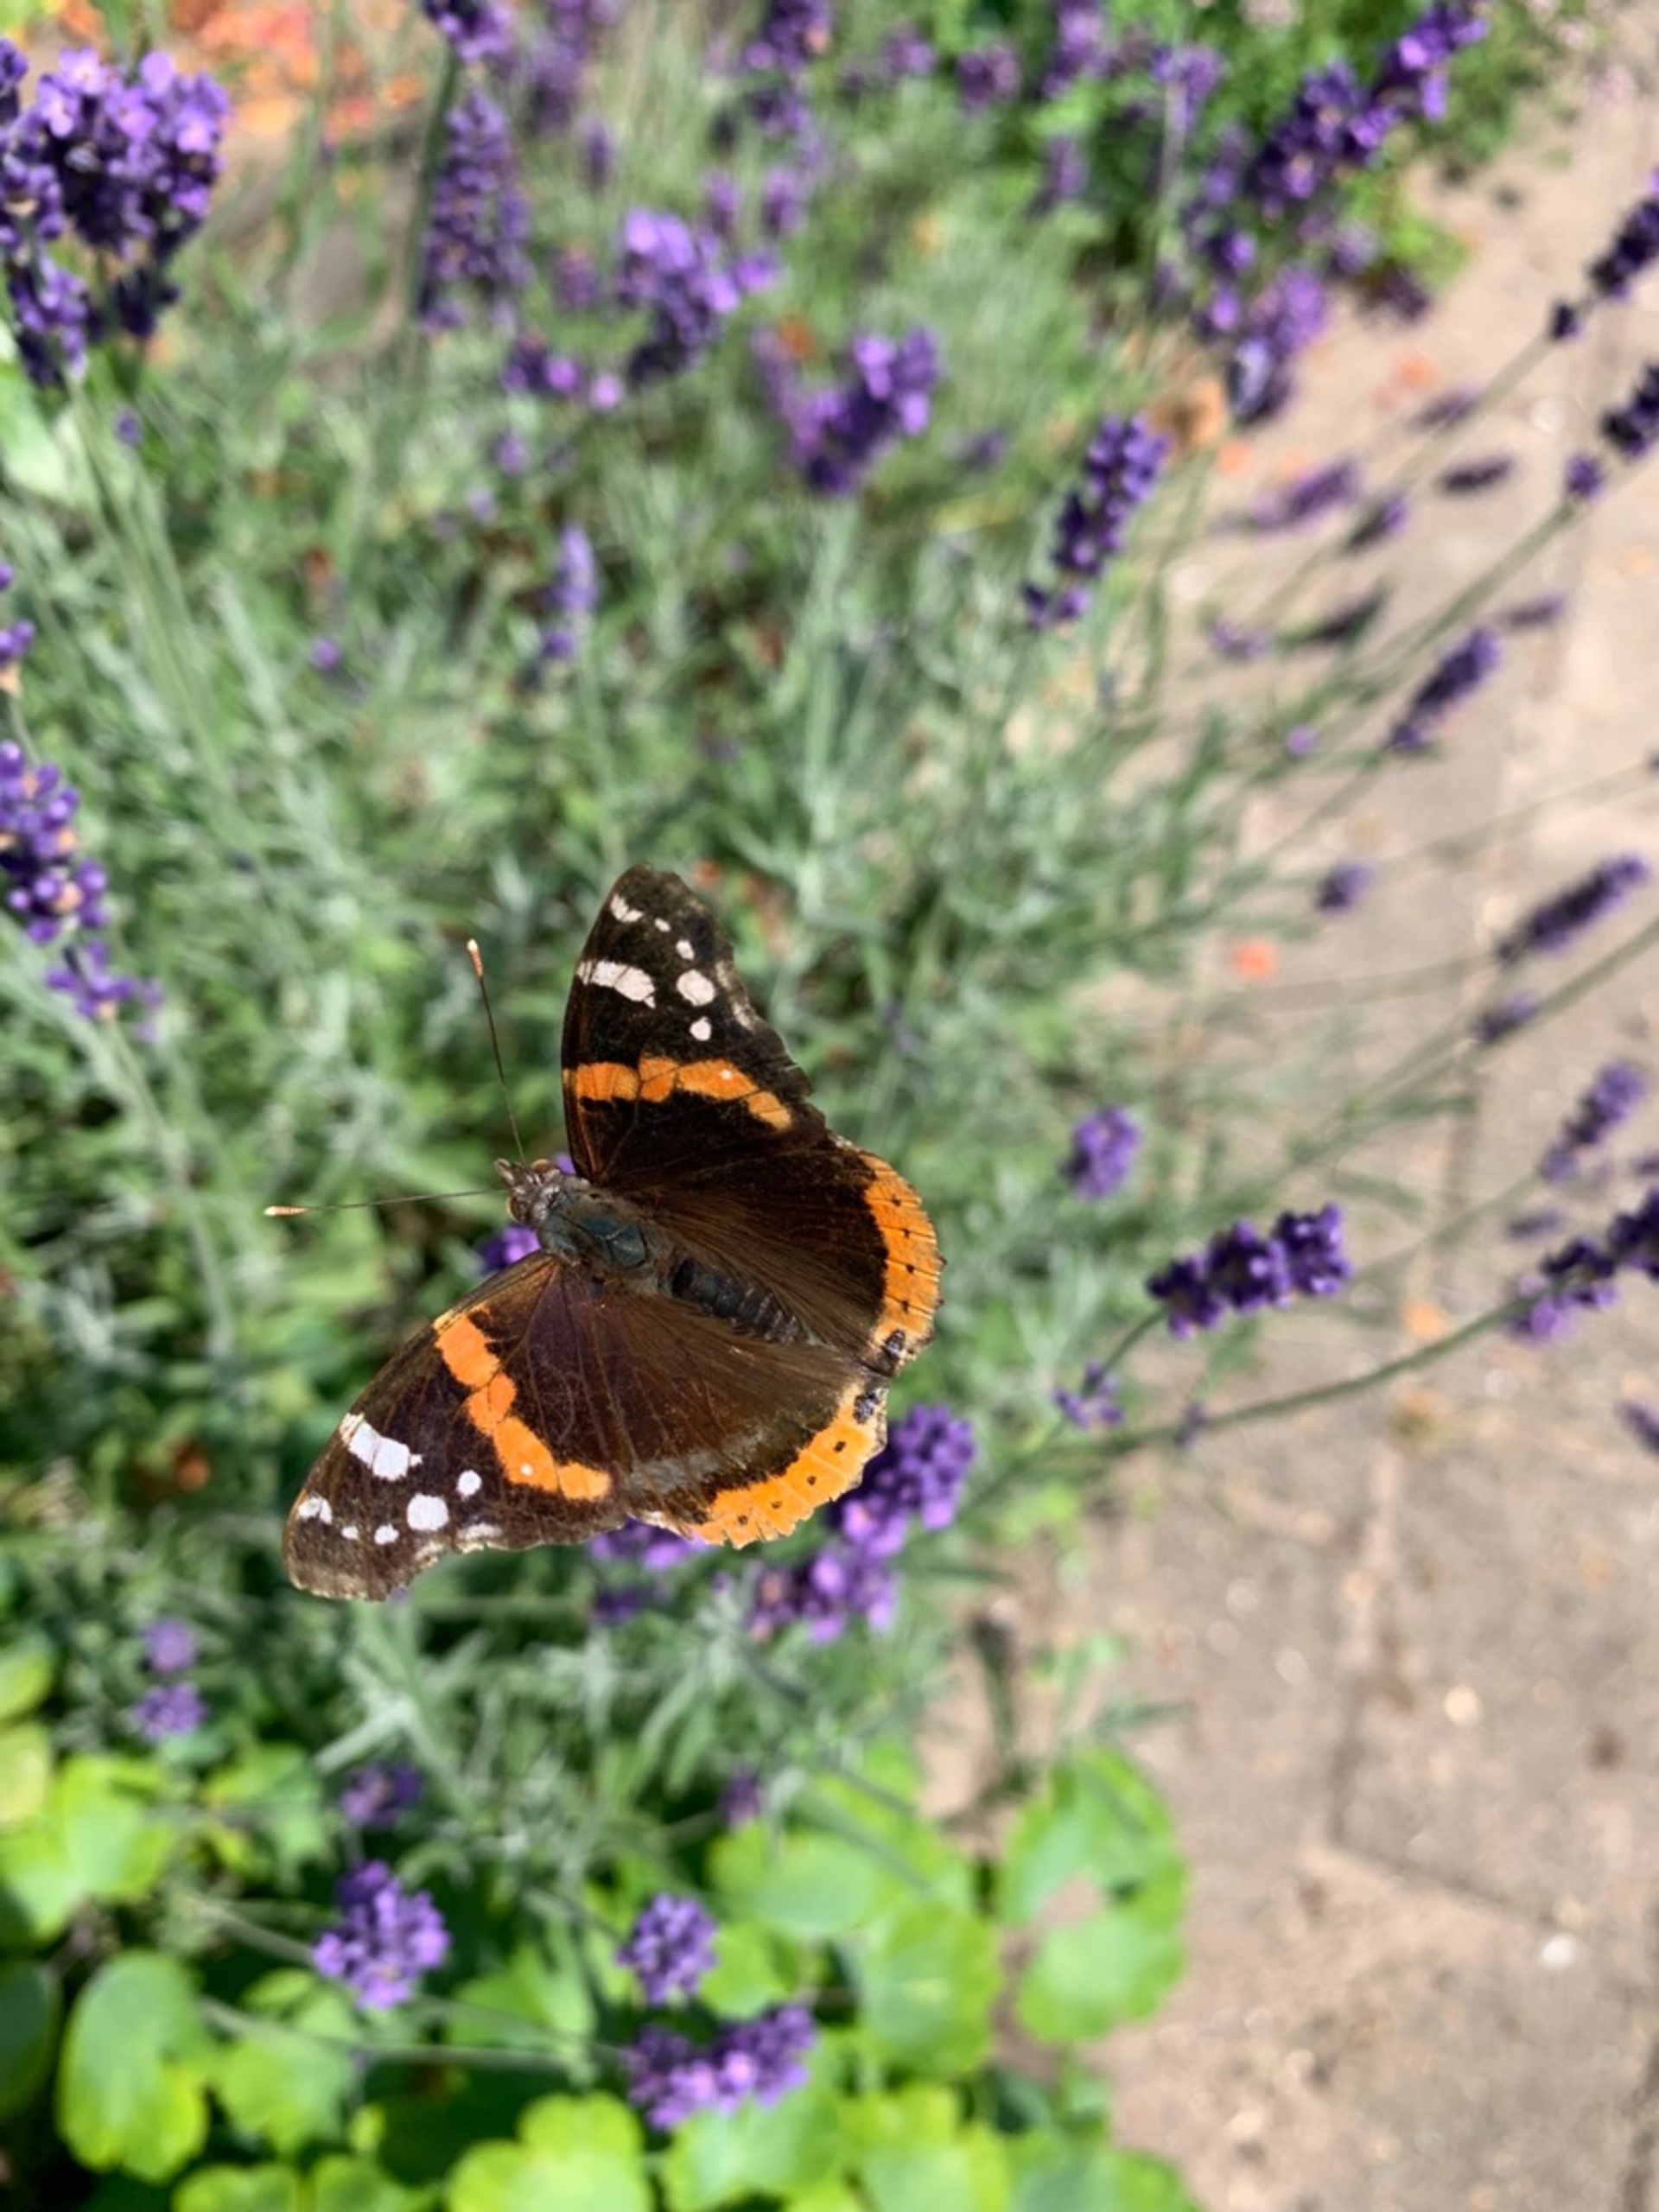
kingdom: Animalia
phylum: Arthropoda
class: Insecta
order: Lepidoptera
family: Nymphalidae
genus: Vanessa
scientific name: Vanessa atalanta
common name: Admiral
